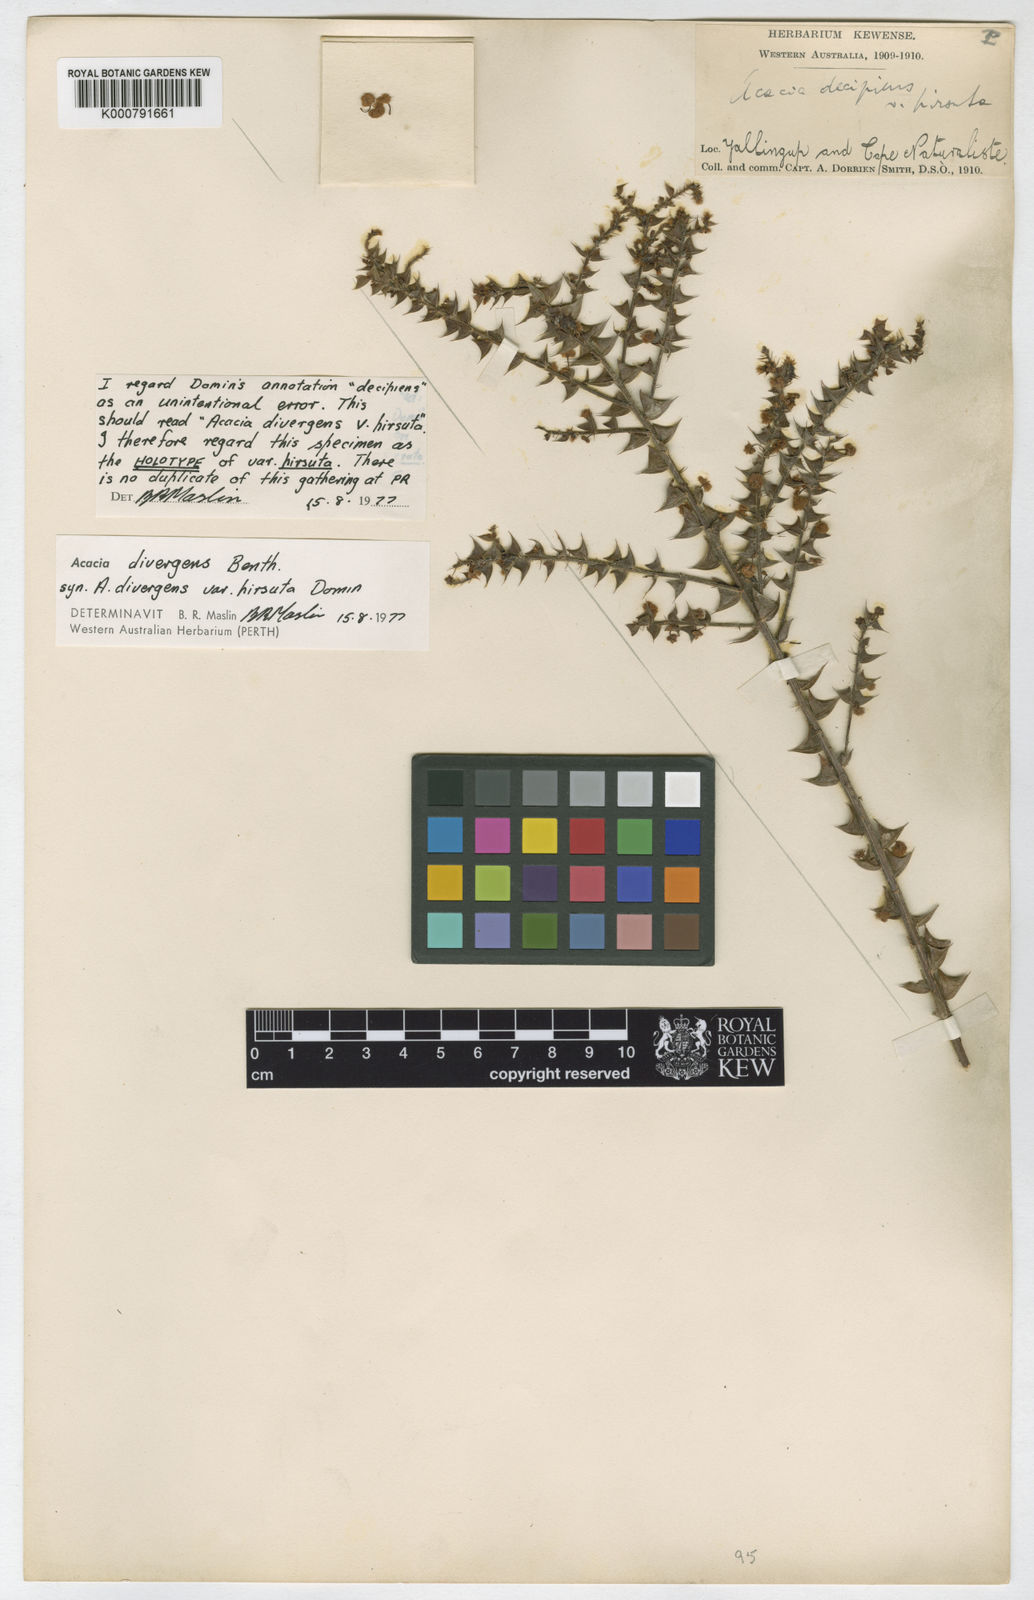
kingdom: Plantae
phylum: Tracheophyta
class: Magnoliopsida
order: Fabales
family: Fabaceae
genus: Acacia
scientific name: Acacia divergens
